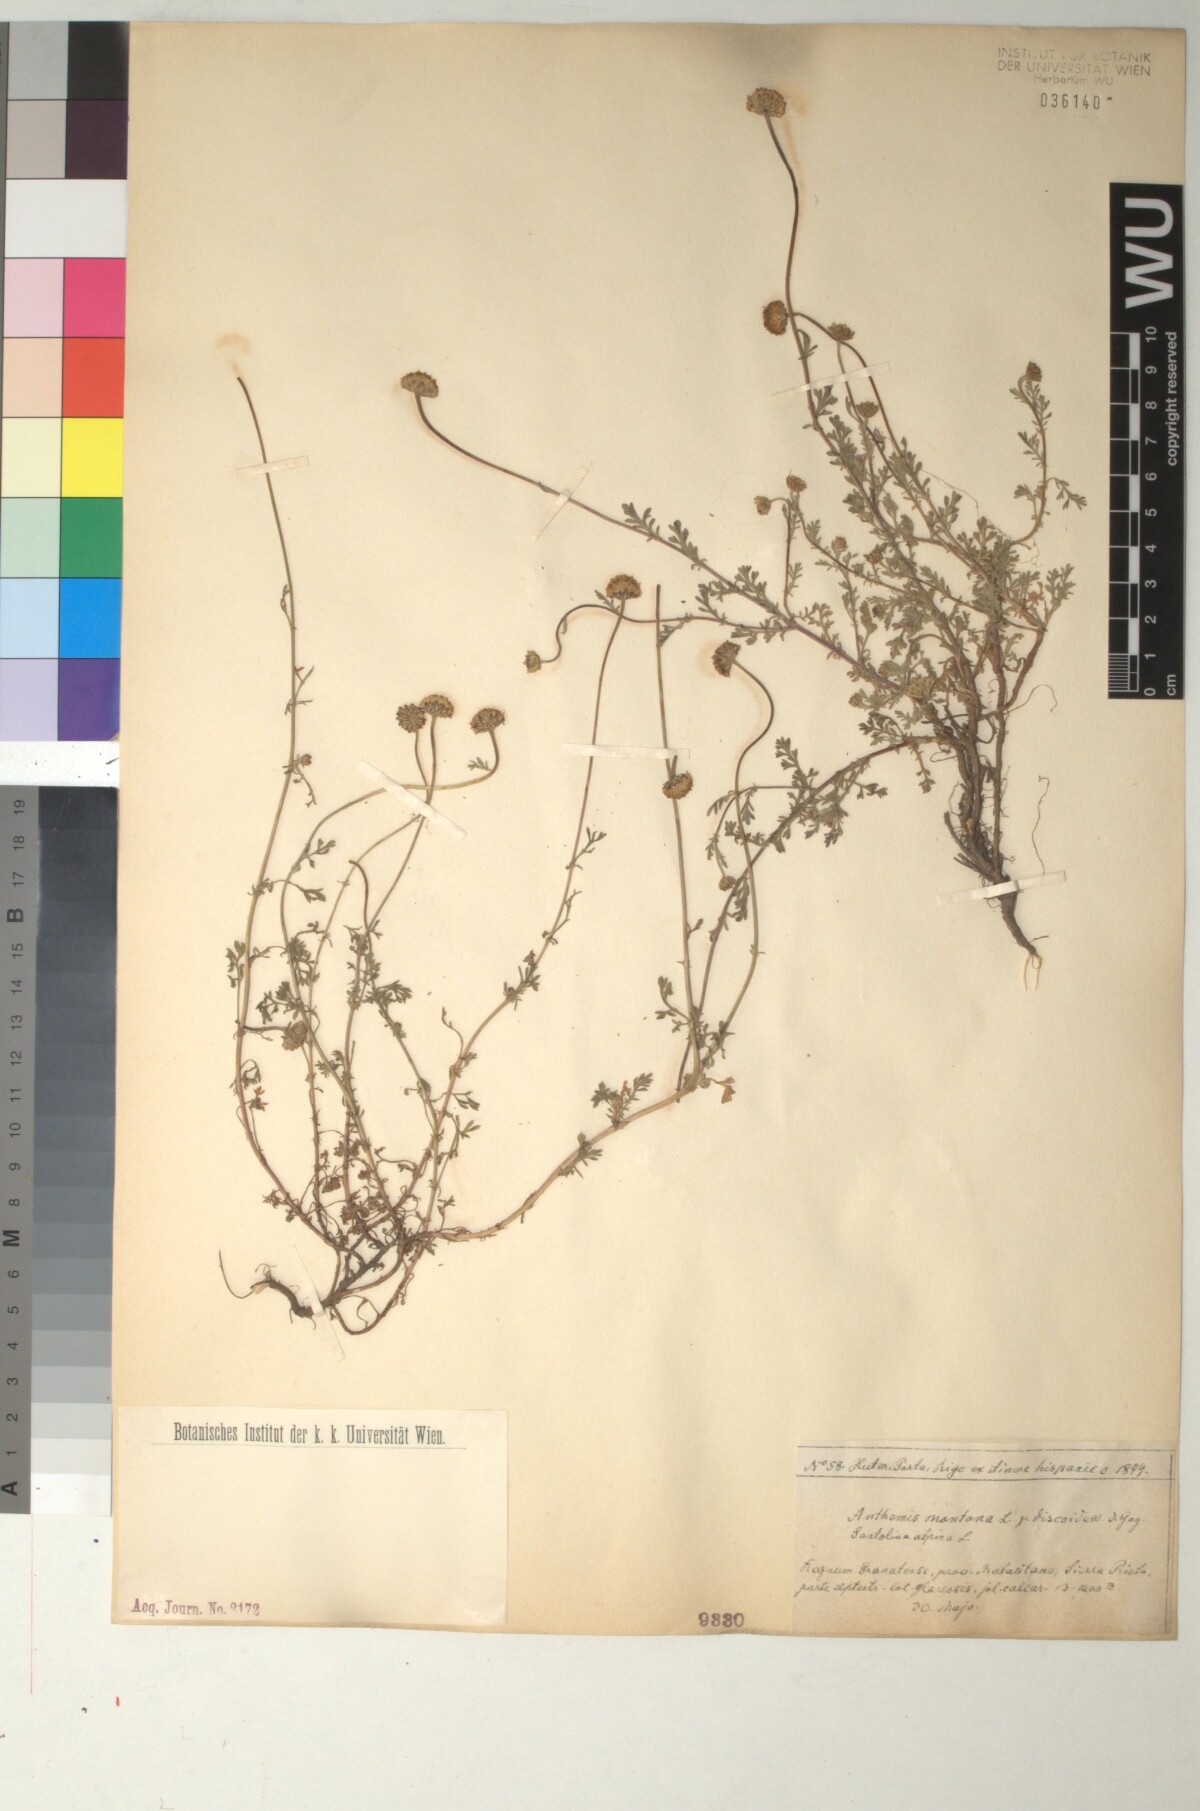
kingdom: Plantae
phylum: Tracheophyta
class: Magnoliopsida
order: Asterales
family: Asteraceae
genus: Anthemis
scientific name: Anthemis pedunculata
